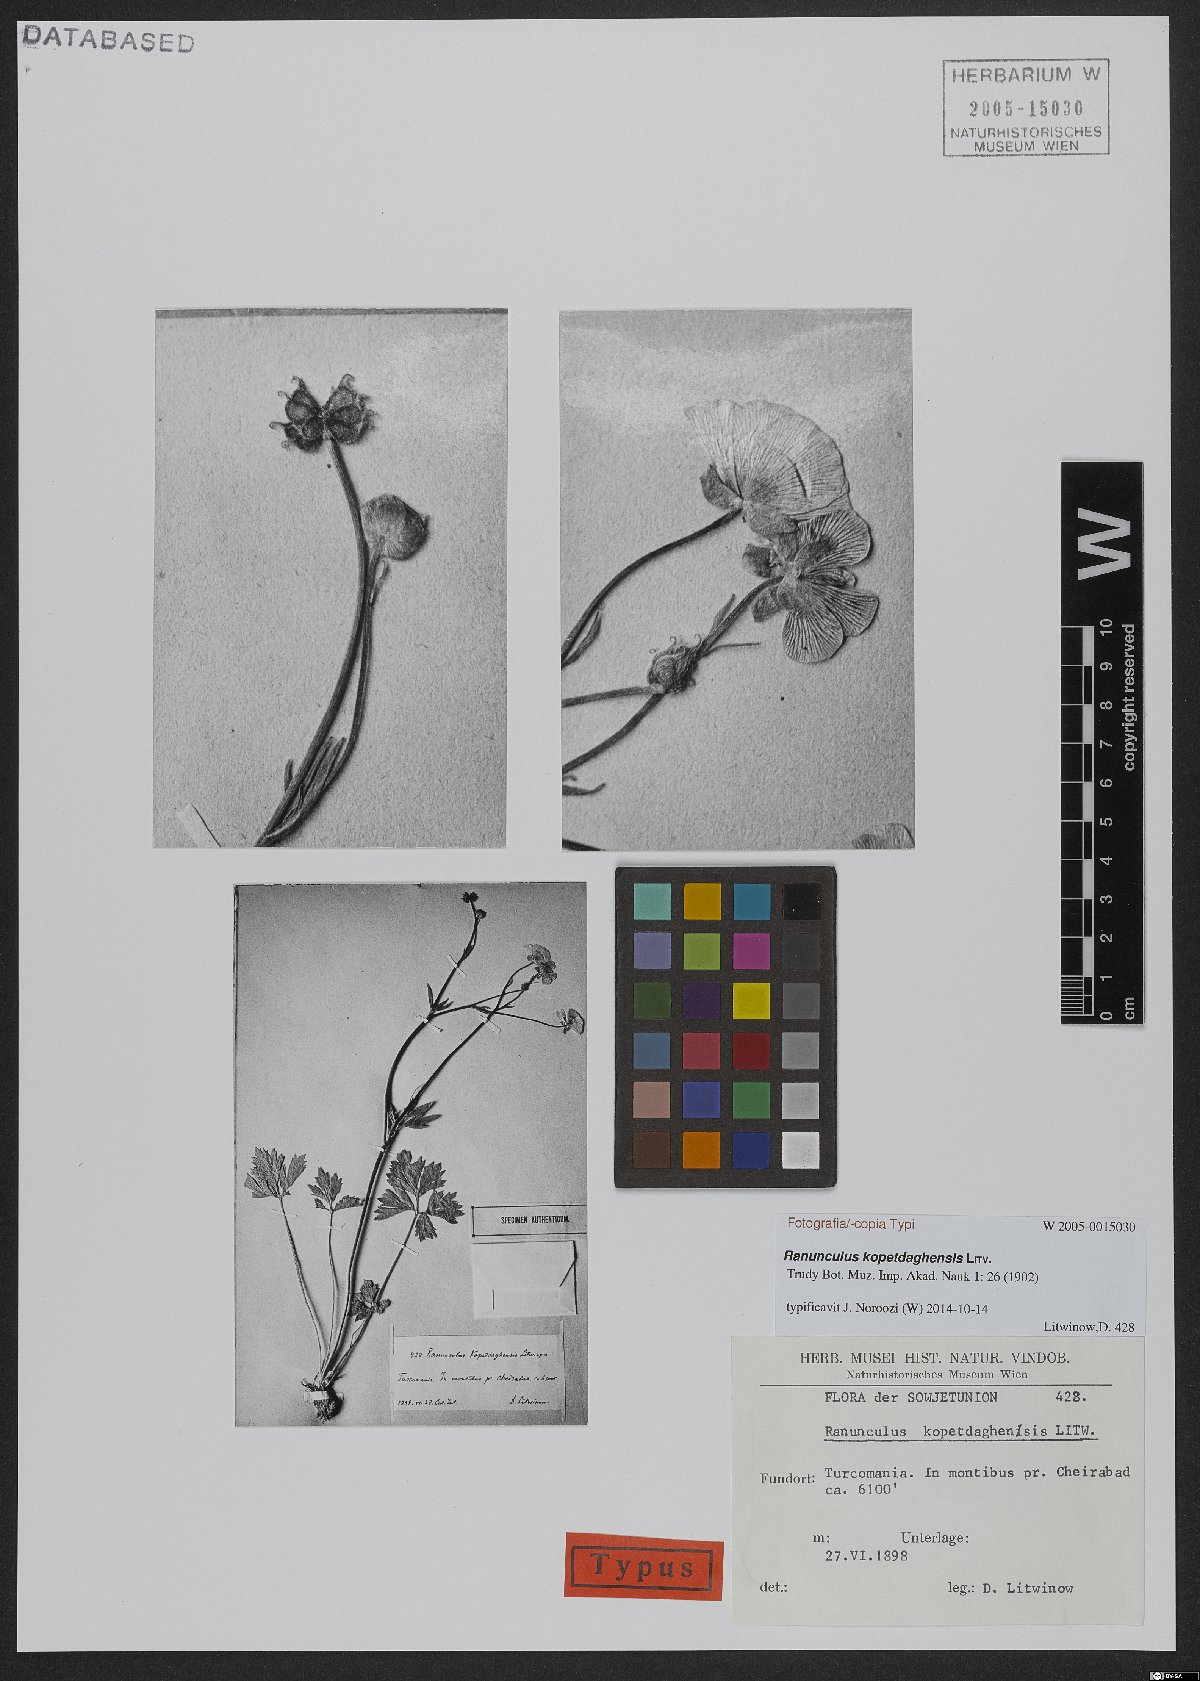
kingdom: Plantae
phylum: Tracheophyta
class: Magnoliopsida
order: Ranunculales
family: Ranunculaceae
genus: Ranunculus
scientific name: Ranunculus kopetdaghensis
